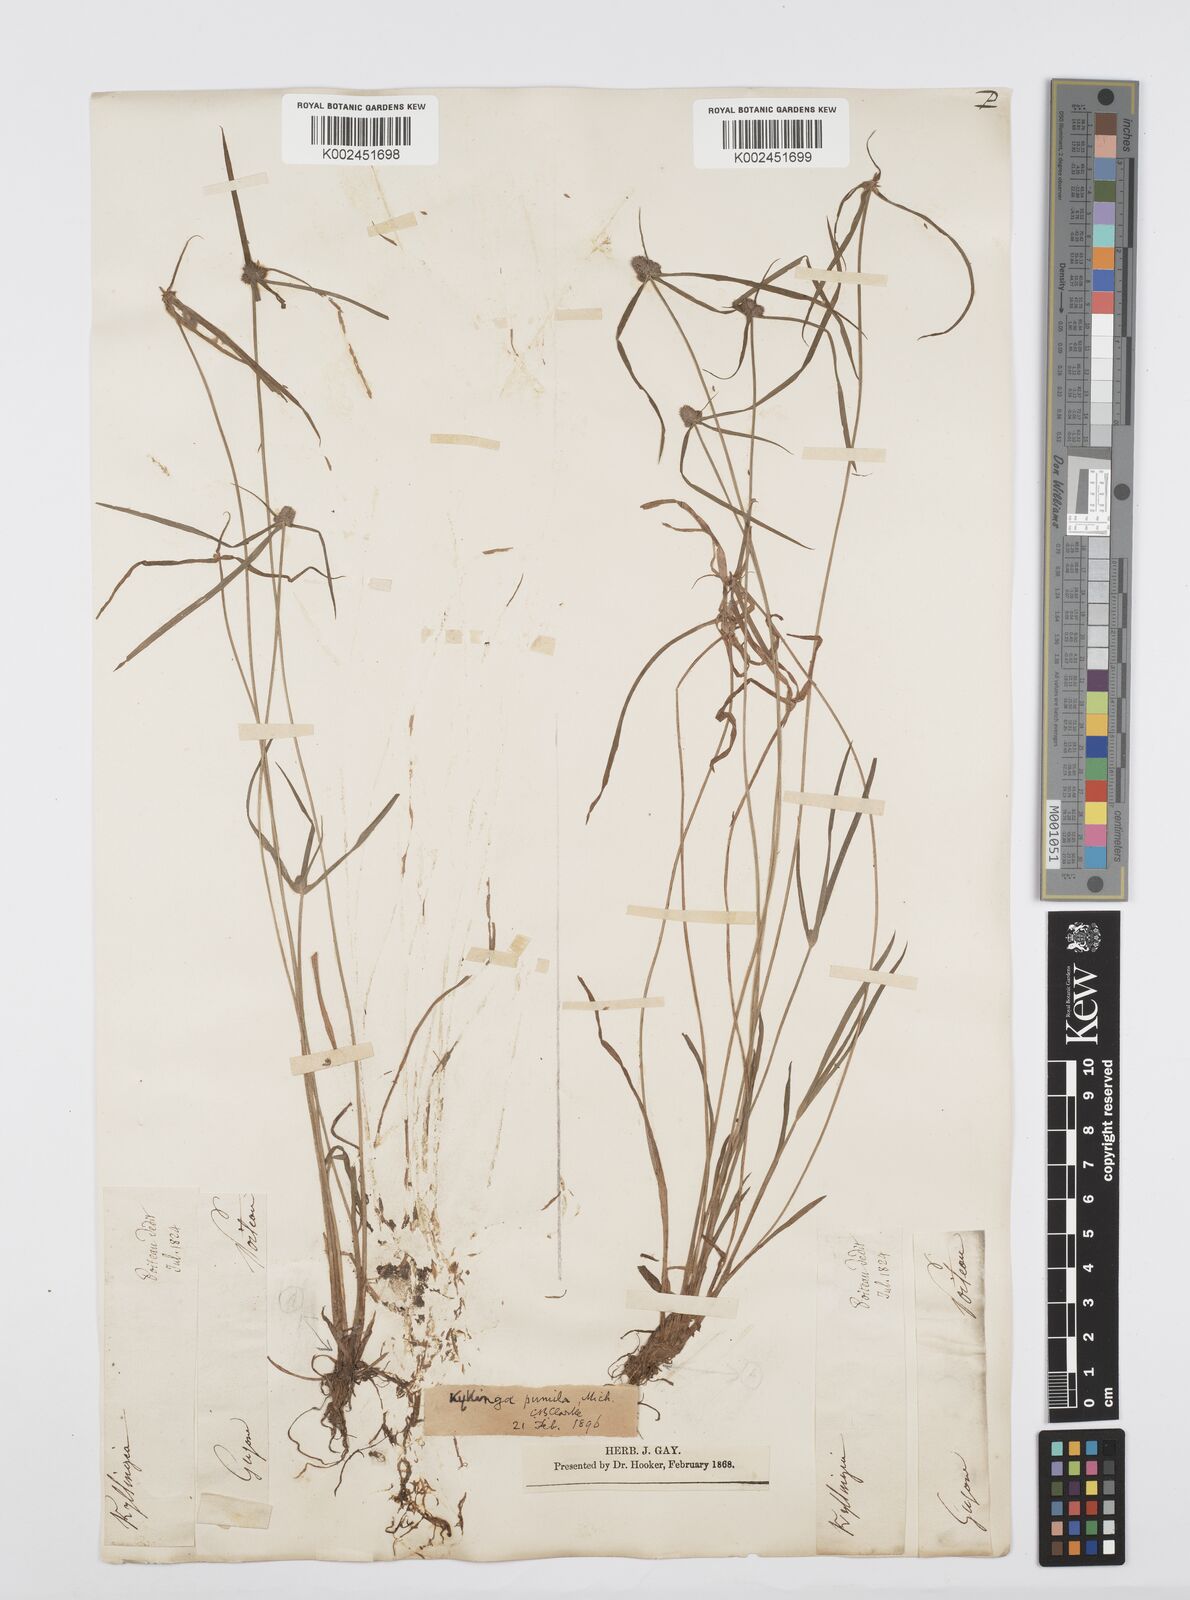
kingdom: Plantae
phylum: Tracheophyta
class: Liliopsida
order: Poales
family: Cyperaceae
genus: Cyperus
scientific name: Cyperus
